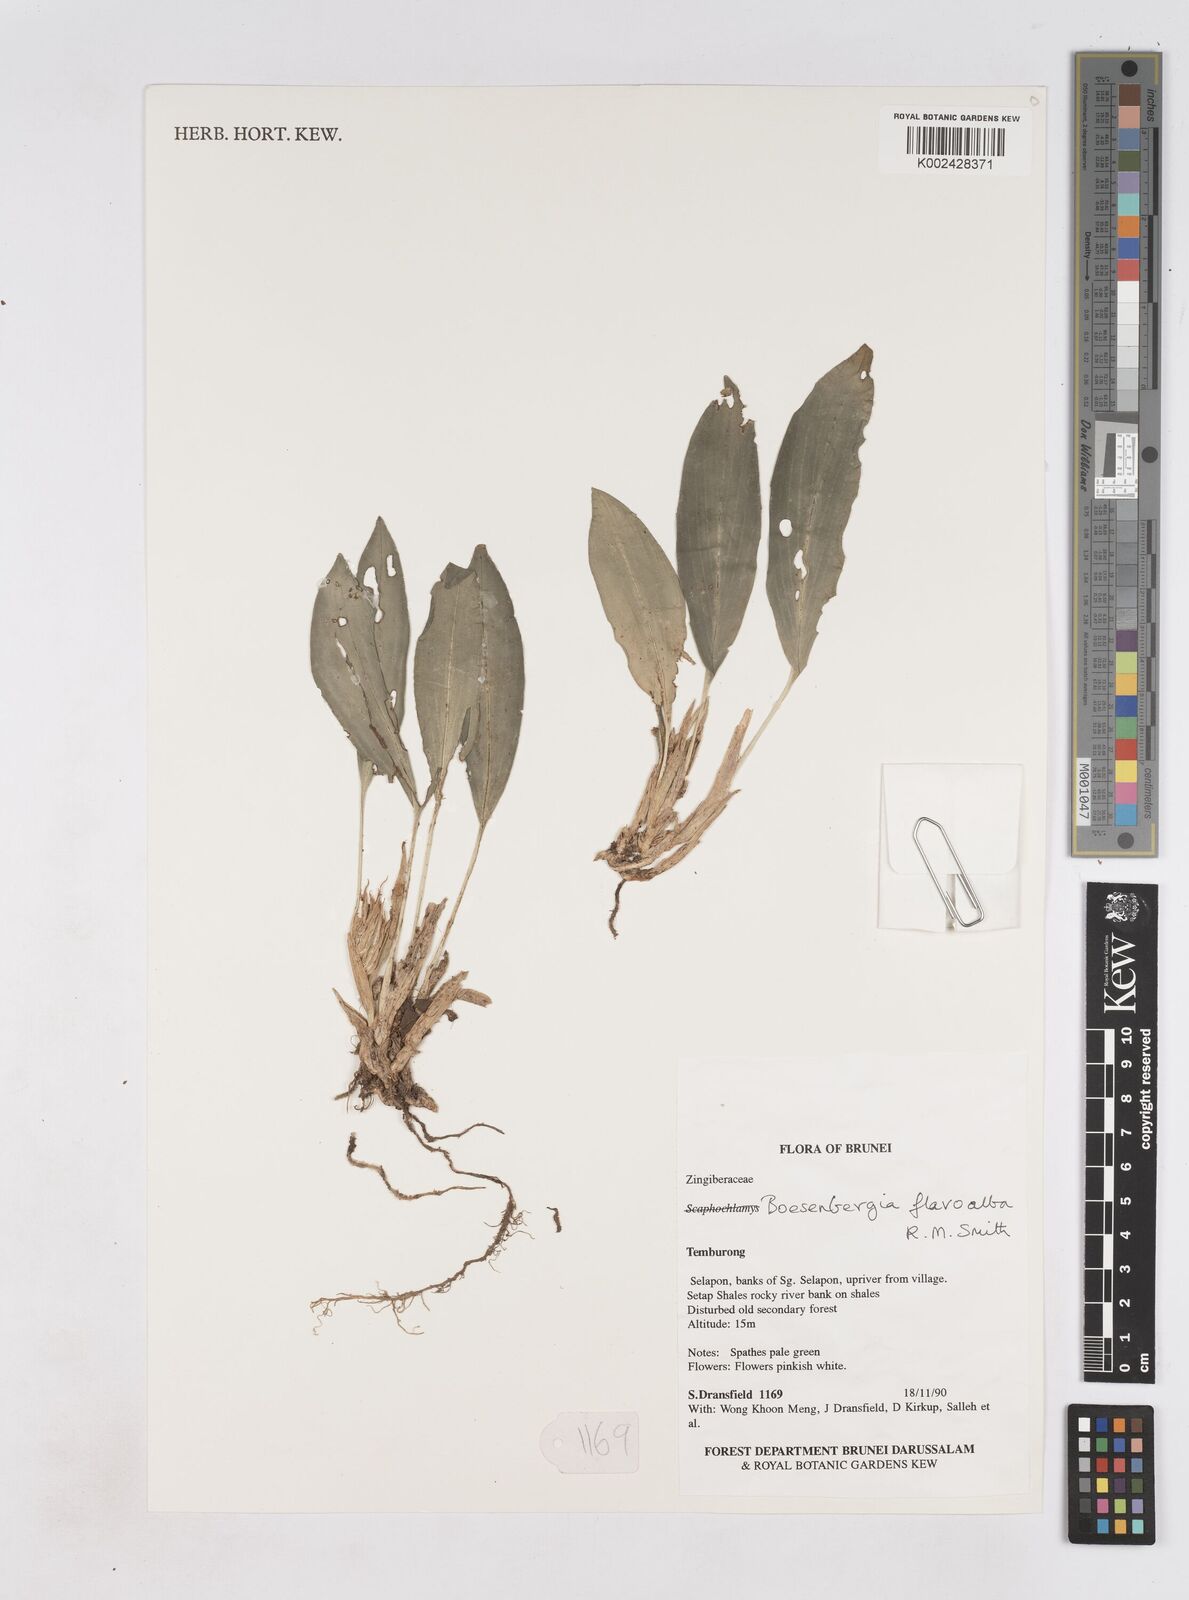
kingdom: Plantae
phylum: Tracheophyta
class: Liliopsida
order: Zingiberales
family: Zingiberaceae
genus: Boesenbergia
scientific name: Boesenbergia flavoalba
